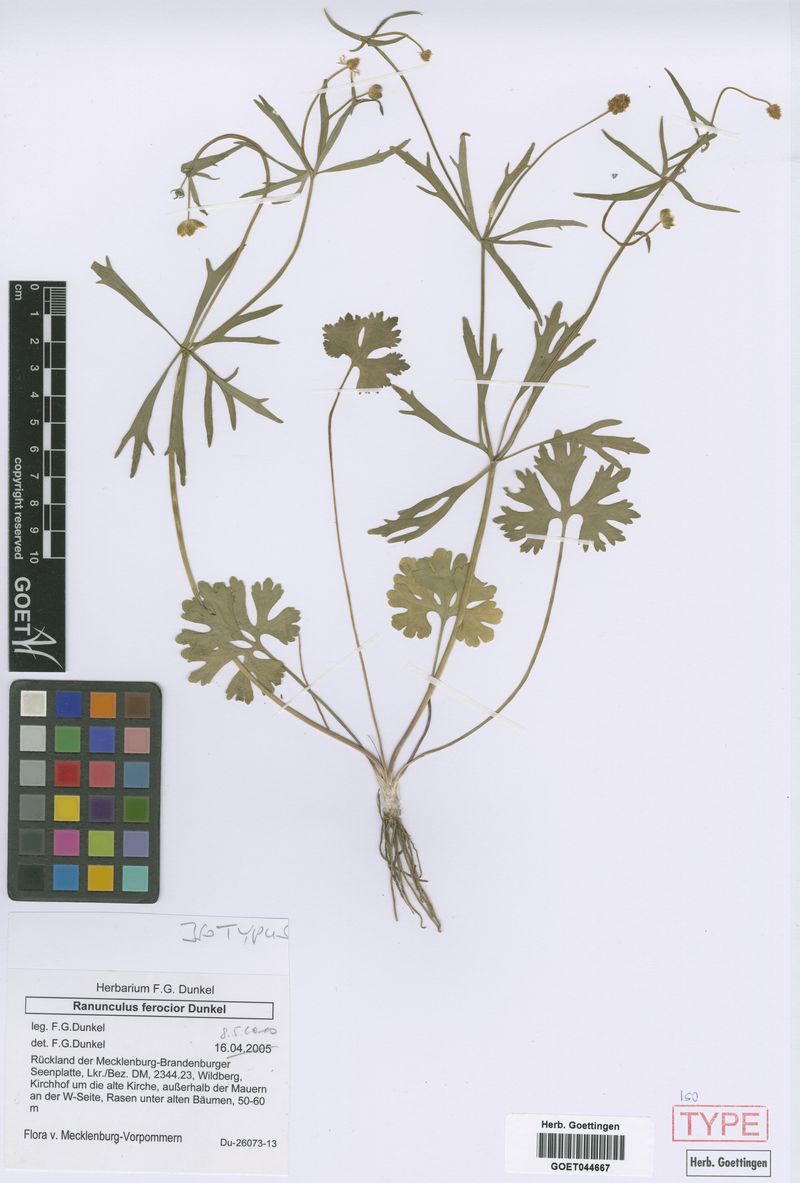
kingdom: Plantae
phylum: Tracheophyta
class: Magnoliopsida
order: Ranunculales
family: Ranunculaceae
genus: Ranunculus
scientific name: Ranunculus ferocior
